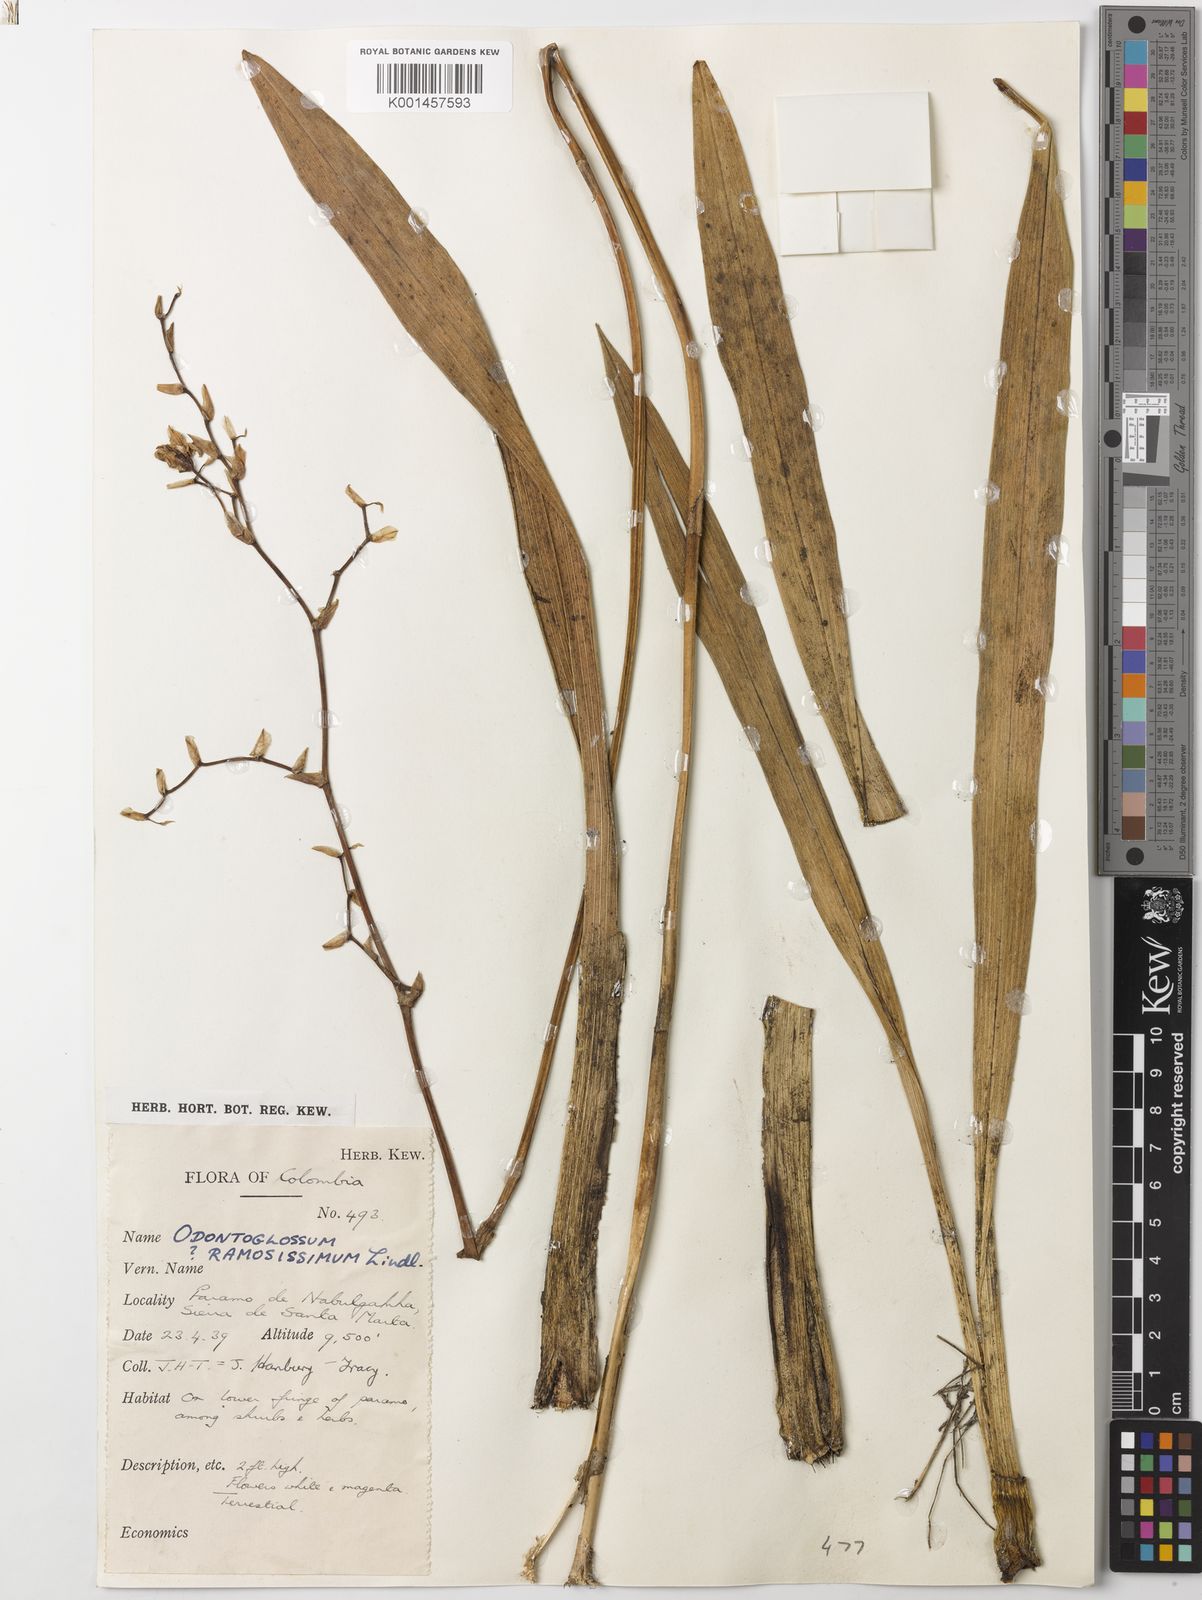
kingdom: Plantae
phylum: Tracheophyta
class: Liliopsida
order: Asparagales
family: Orchidaceae
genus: Cyrtochilum
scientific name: Cyrtochilum
